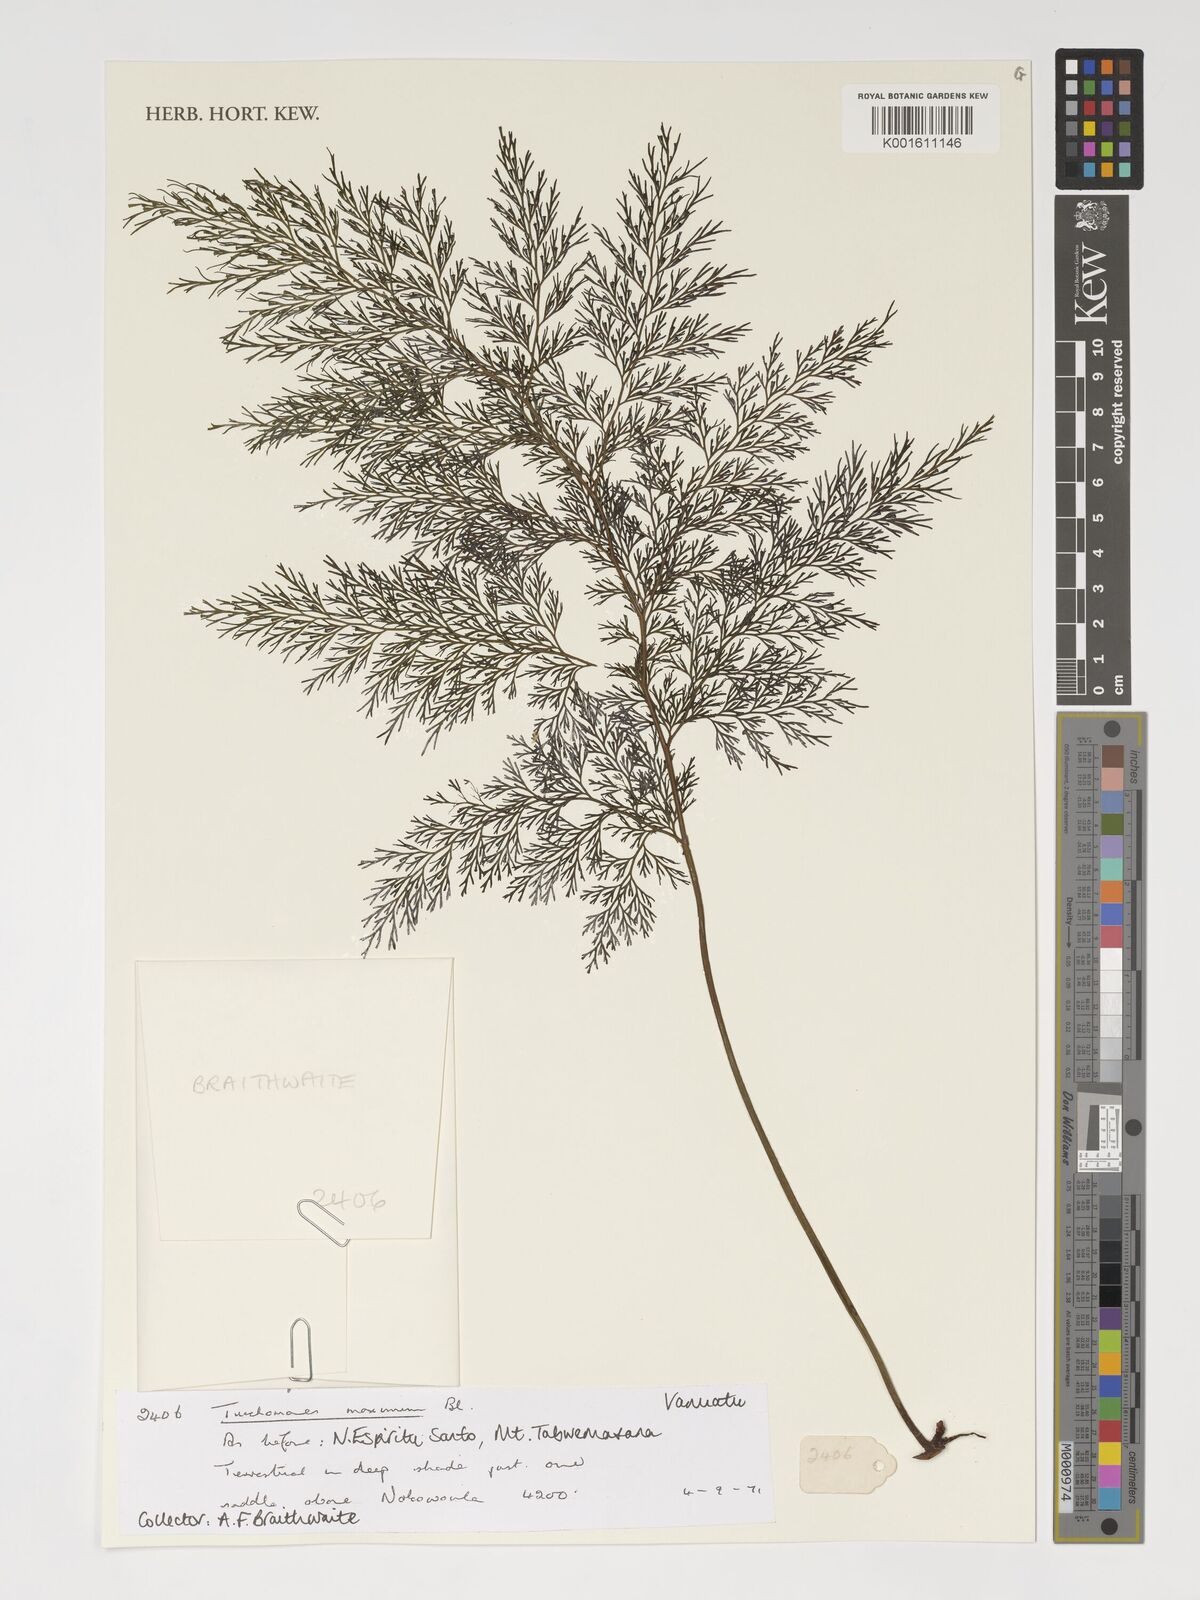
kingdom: Plantae
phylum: Tracheophyta
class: Polypodiopsida
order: Hymenophyllales
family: Hymenophyllaceae
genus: Vandenboschia
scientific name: Vandenboschia maxima
